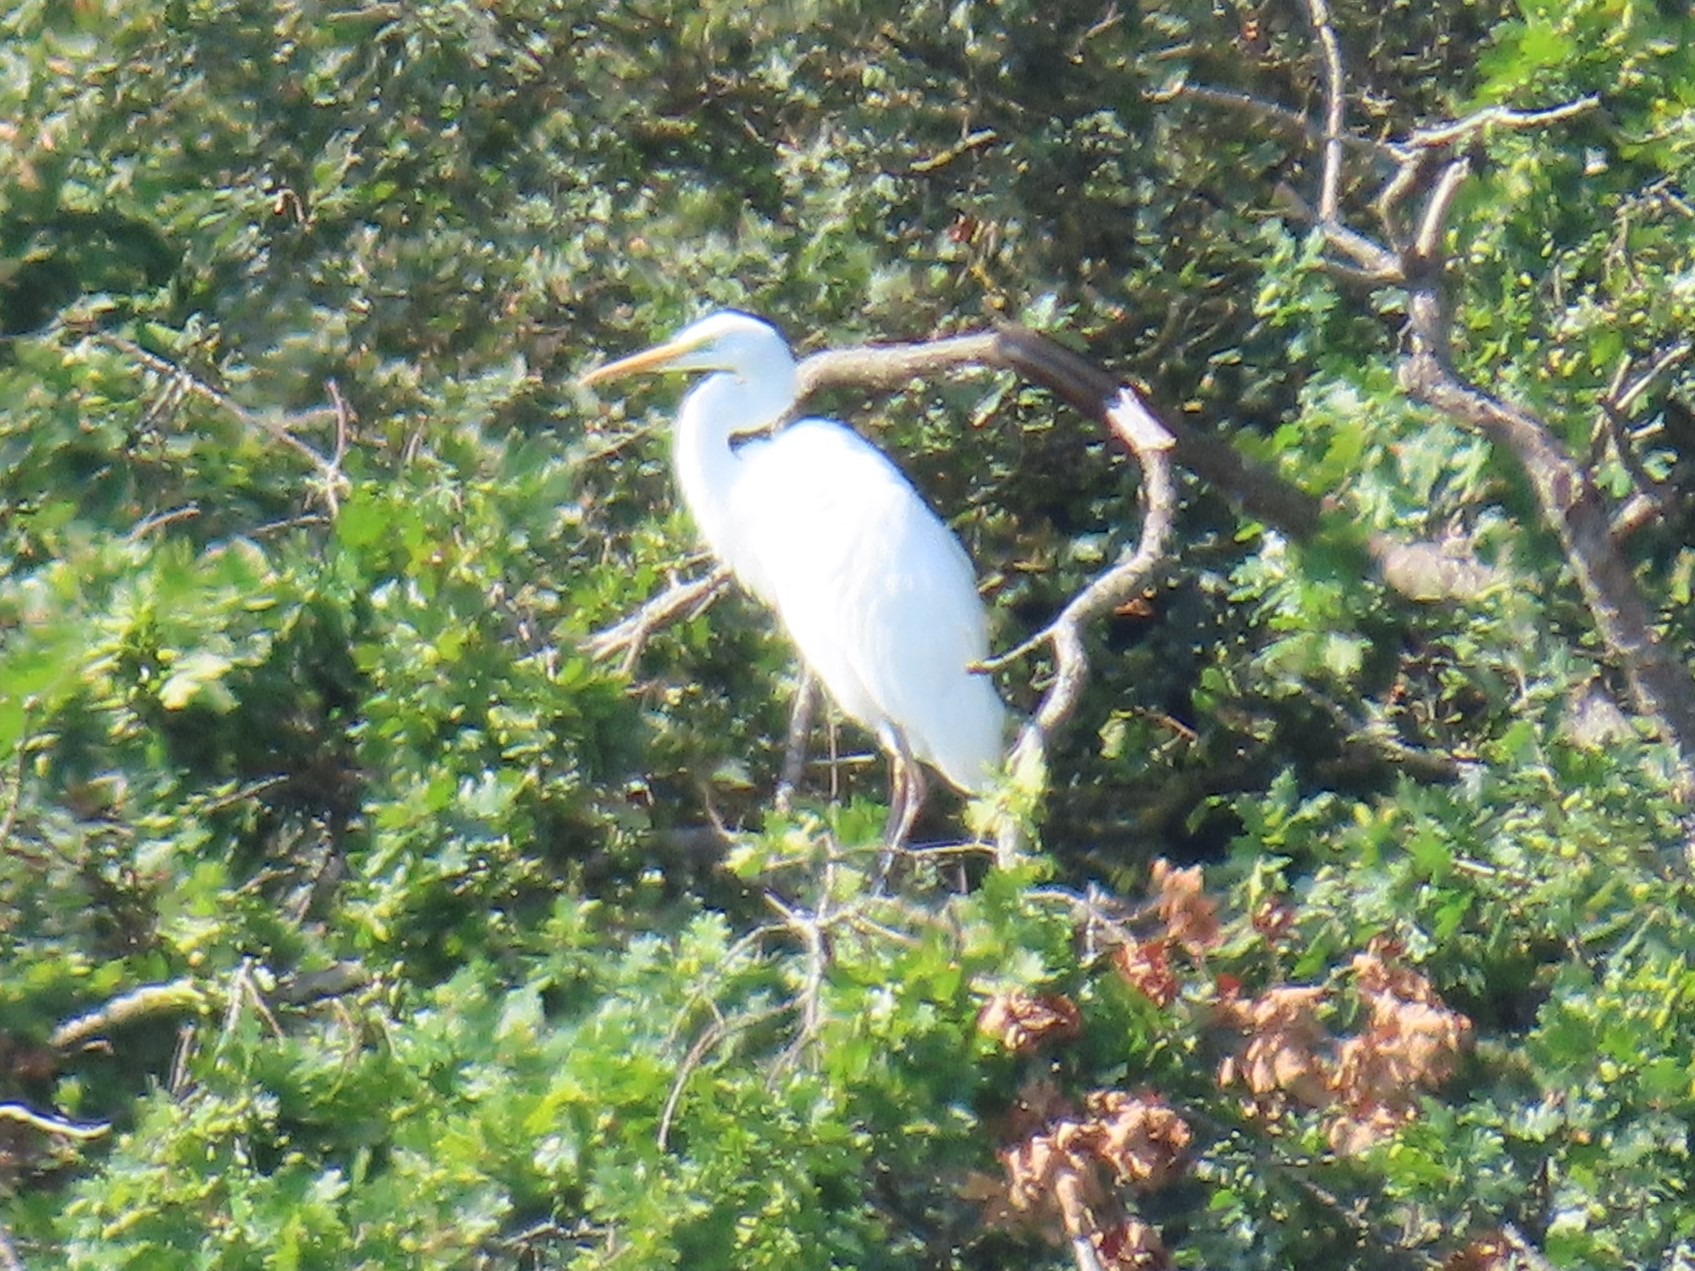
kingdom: Animalia
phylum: Chordata
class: Aves
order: Pelecaniformes
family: Ardeidae
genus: Ardea
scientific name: Ardea alba
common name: Sølvhejre
